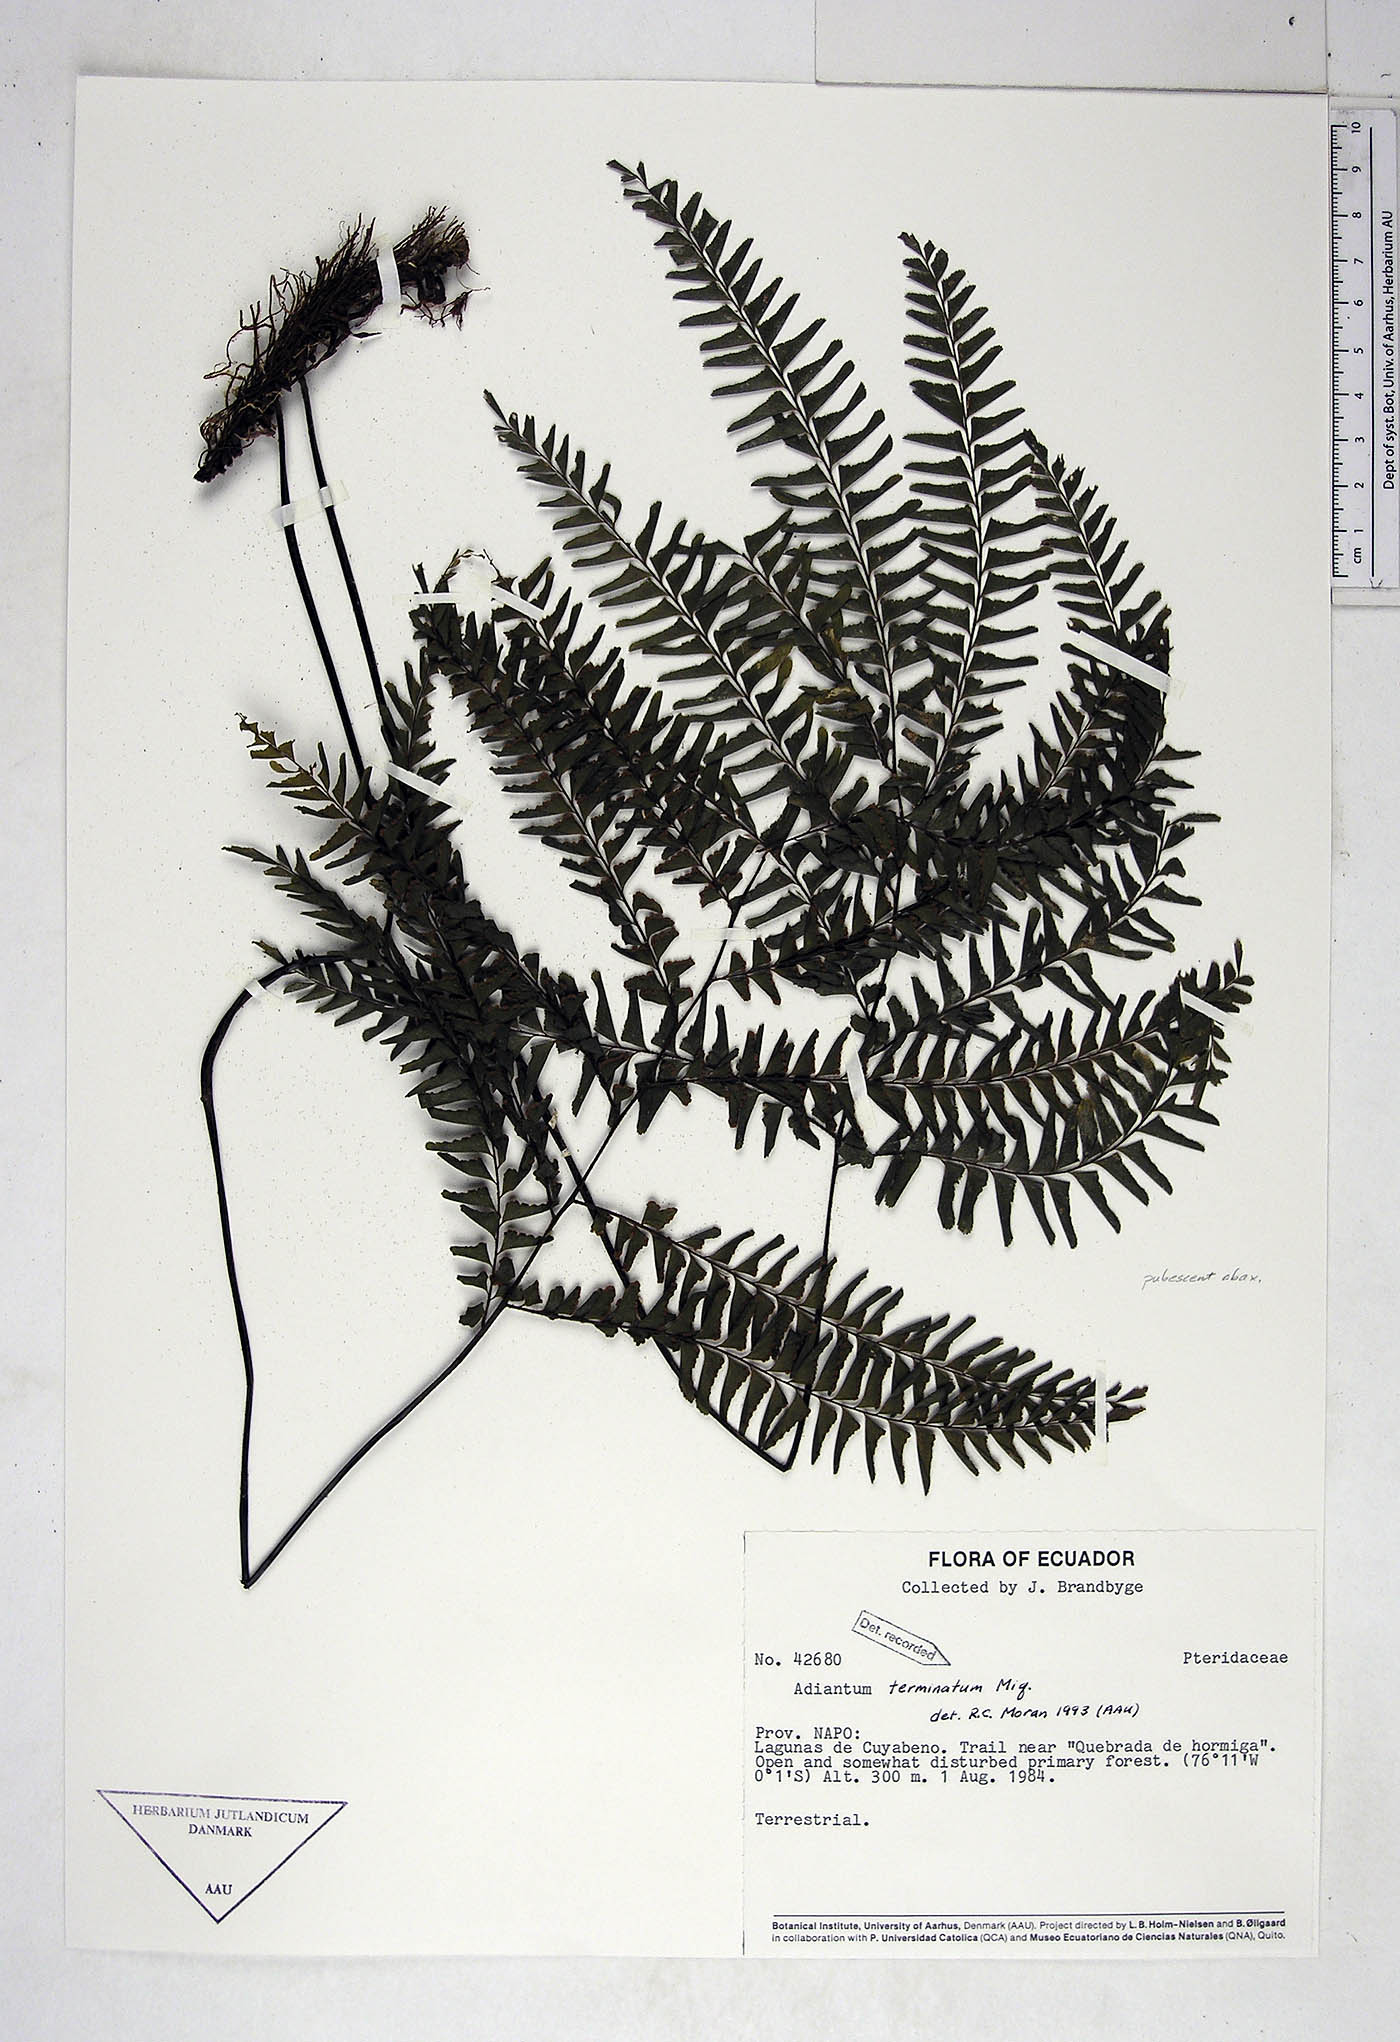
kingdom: Plantae
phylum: Tracheophyta
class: Polypodiopsida
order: Polypodiales
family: Pteridaceae
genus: Adiantum
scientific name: Adiantum terminatum
